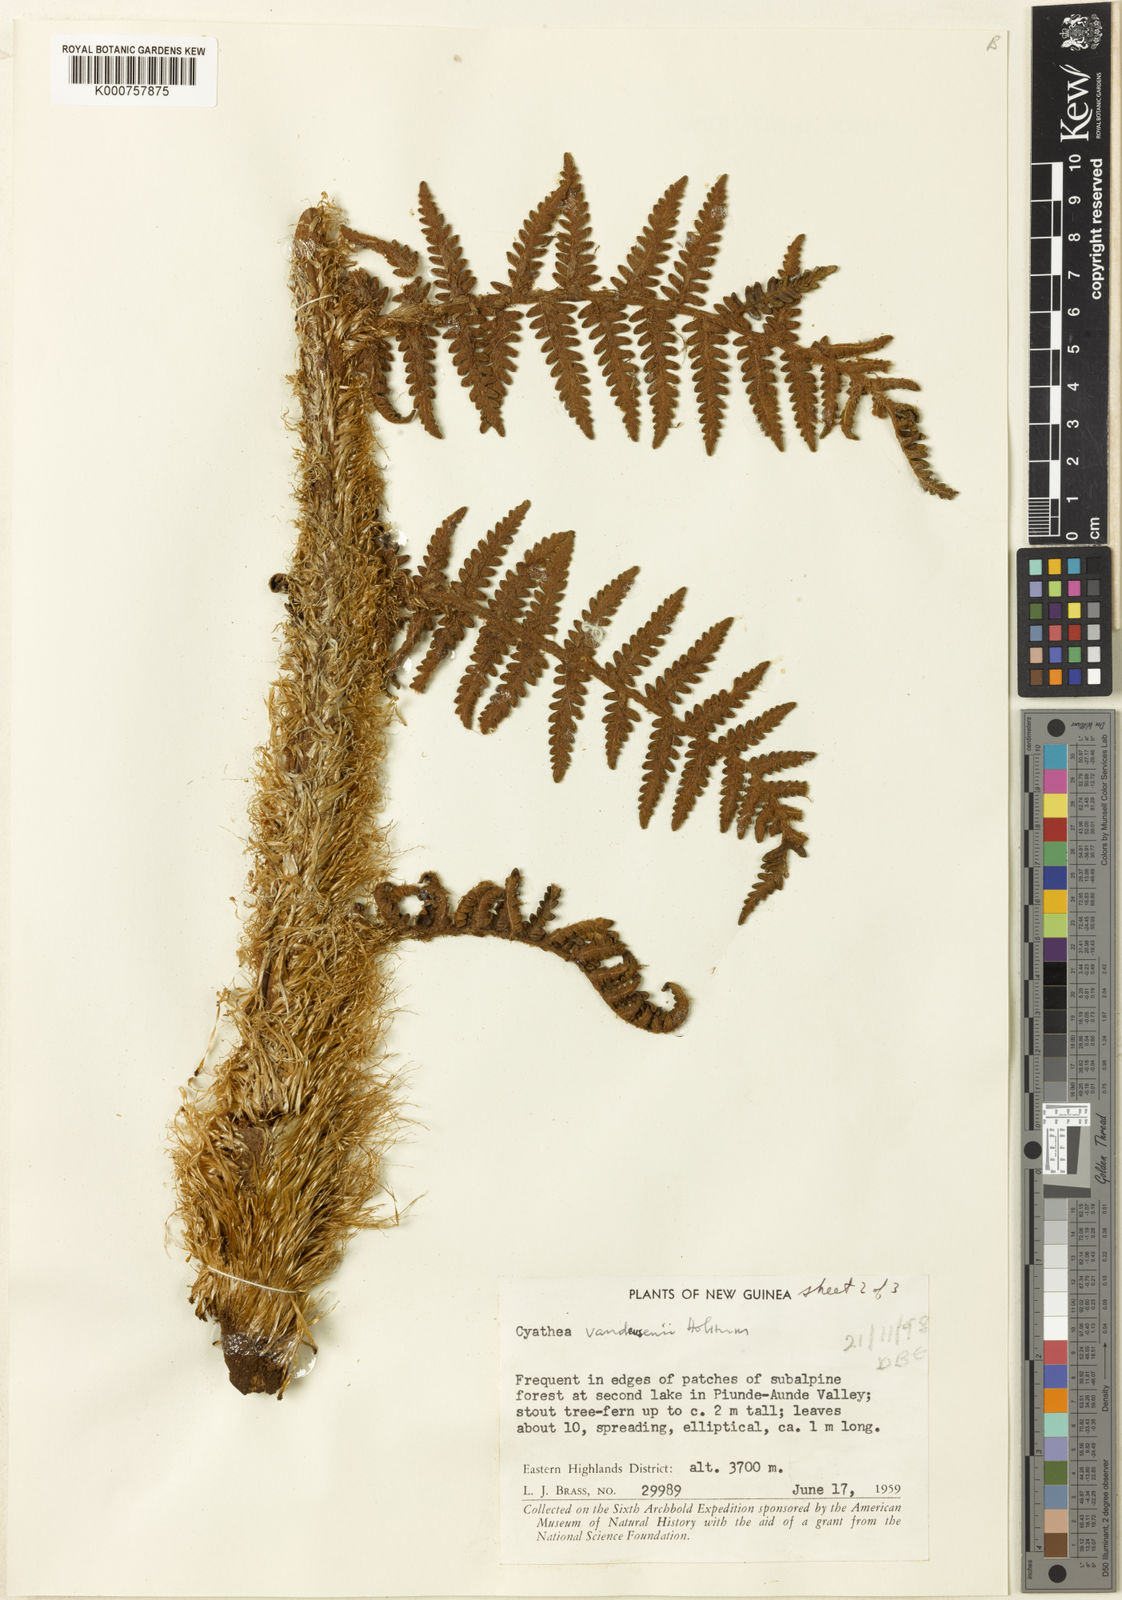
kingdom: Plantae
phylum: Tracheophyta
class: Polypodiopsida
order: Cyatheales
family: Cyatheaceae
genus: Alsophila
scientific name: Alsophila vandeusenii
